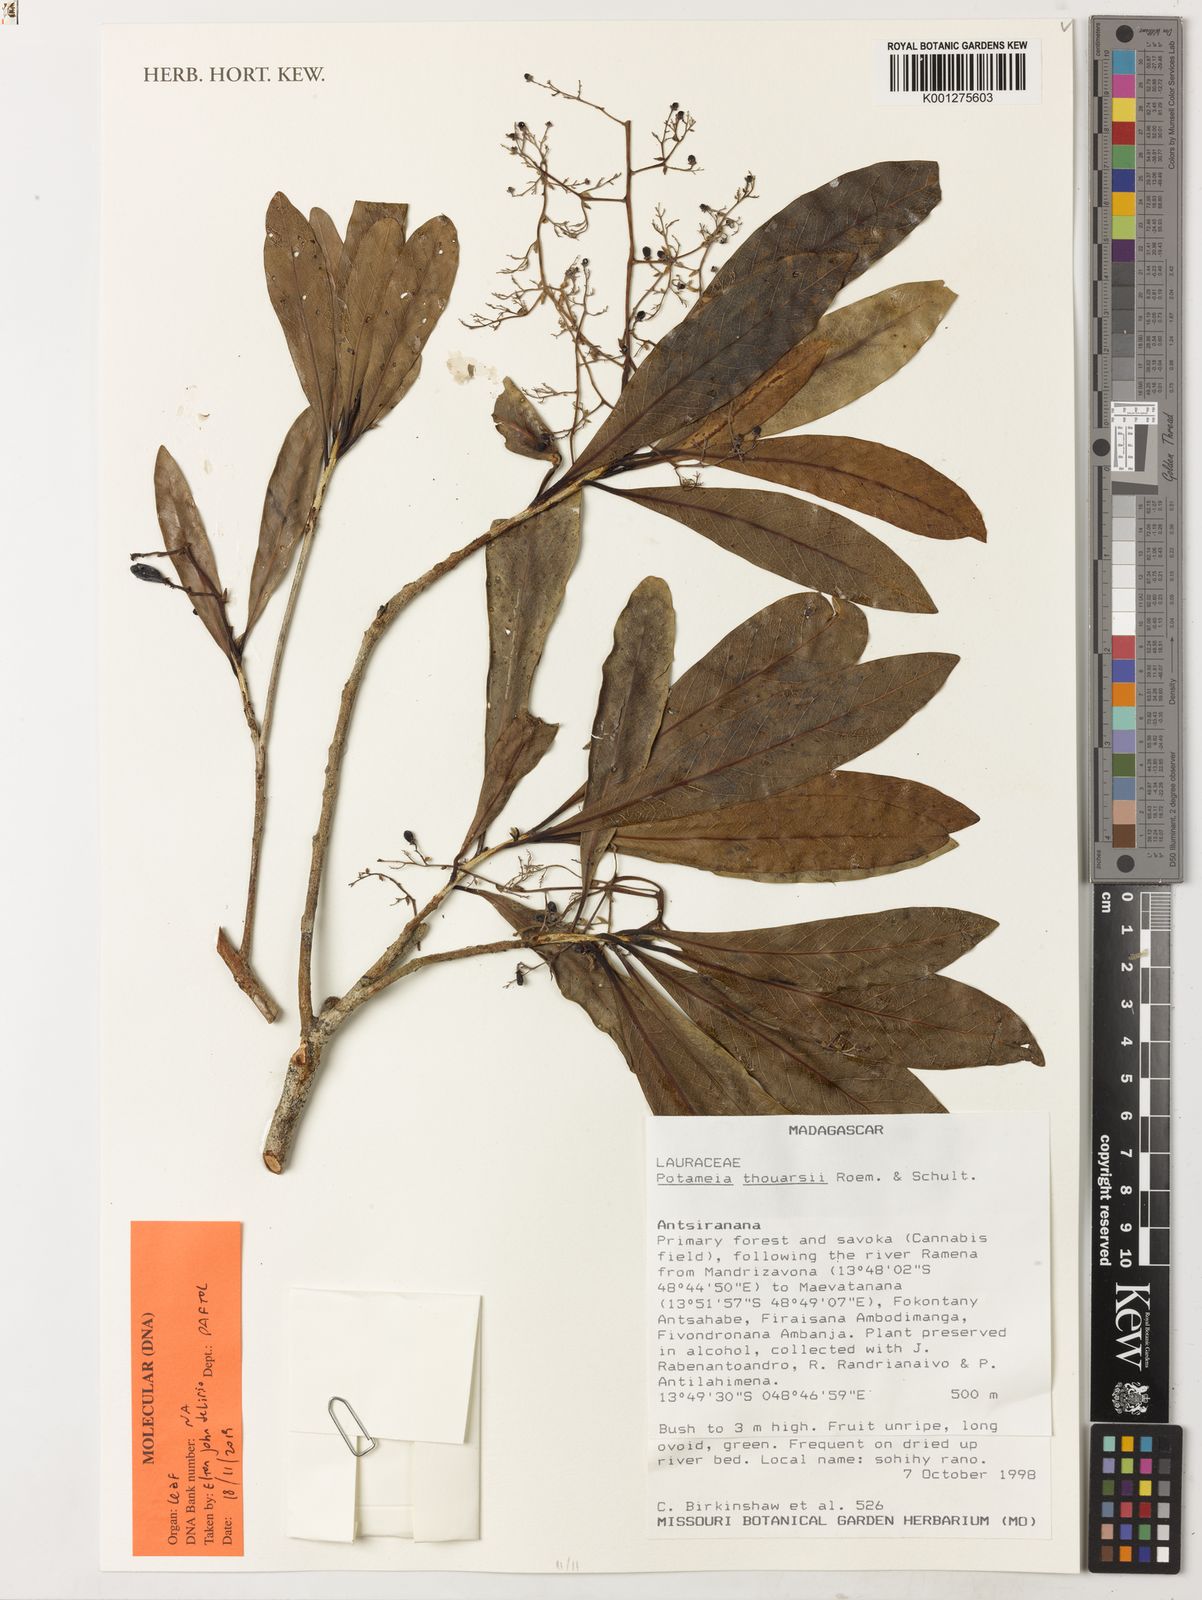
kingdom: Plantae
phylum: Tracheophyta
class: Magnoliopsida
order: Laurales
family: Lauraceae
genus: Potameia
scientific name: Potameia thouarsii
